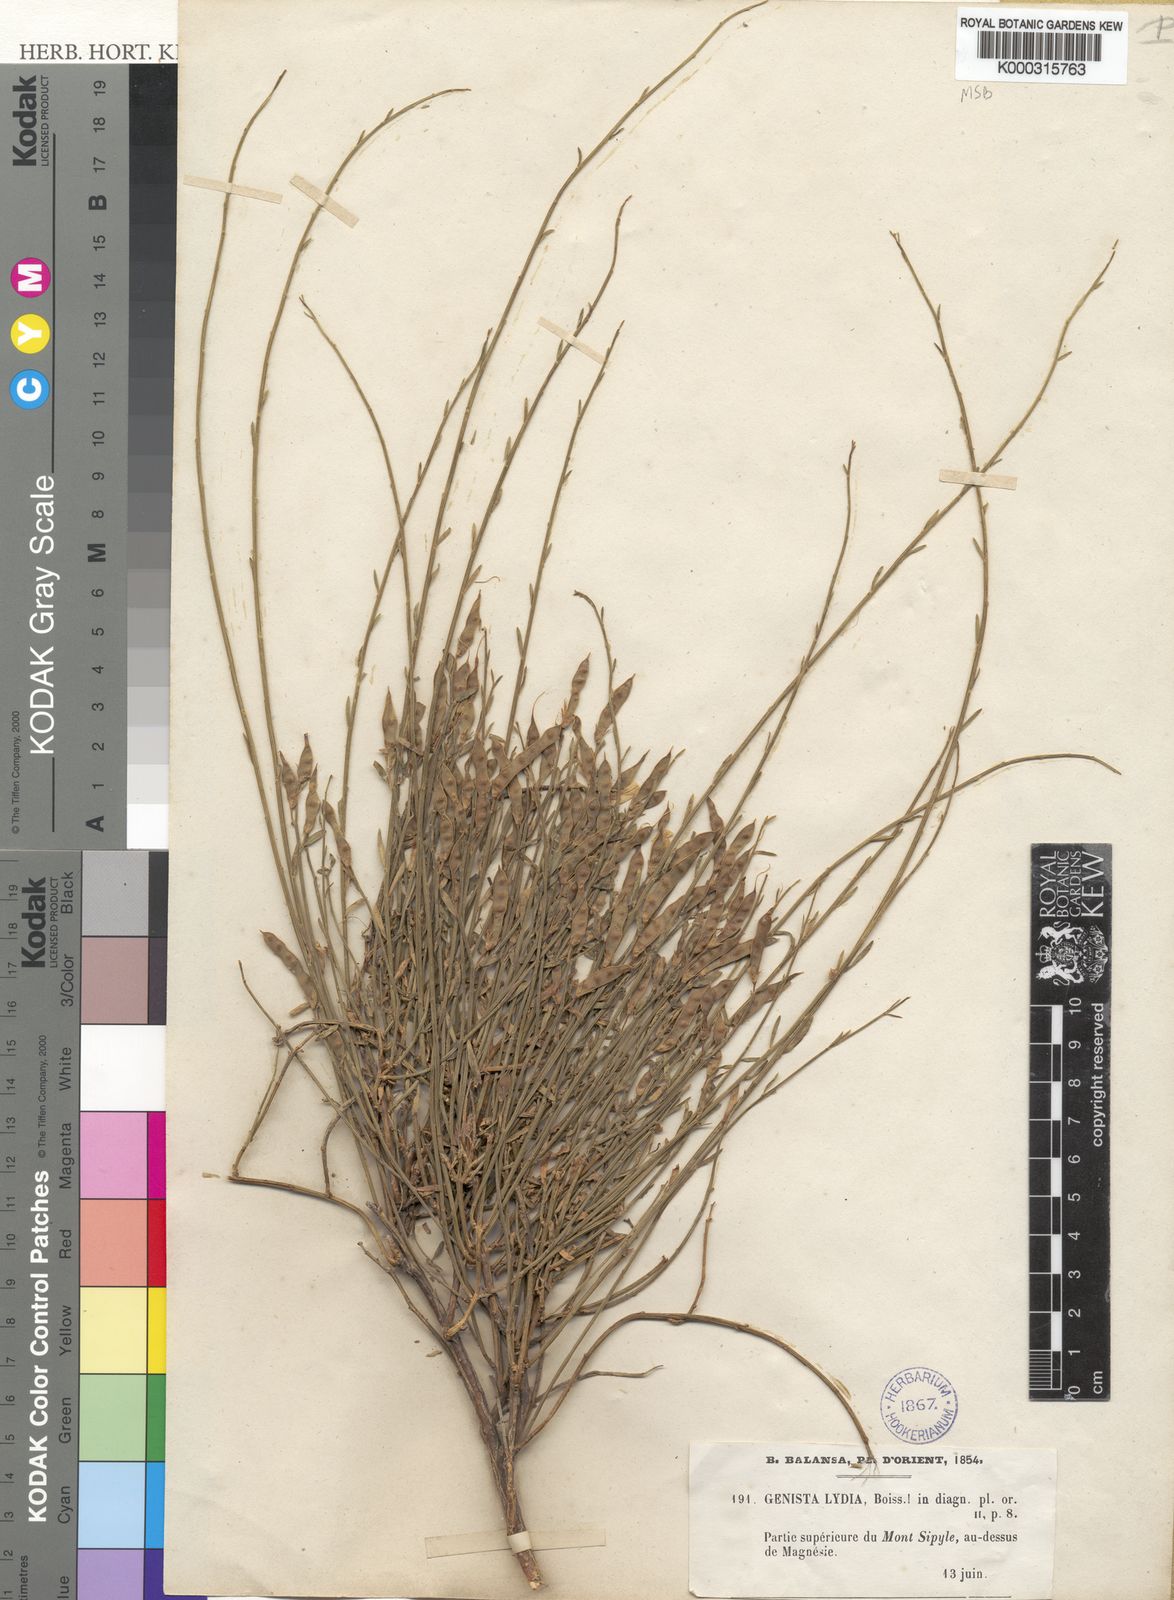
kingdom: Plantae
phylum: Tracheophyta
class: Magnoliopsida
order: Fabales
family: Fabaceae
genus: Genista
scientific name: Genista lydia
